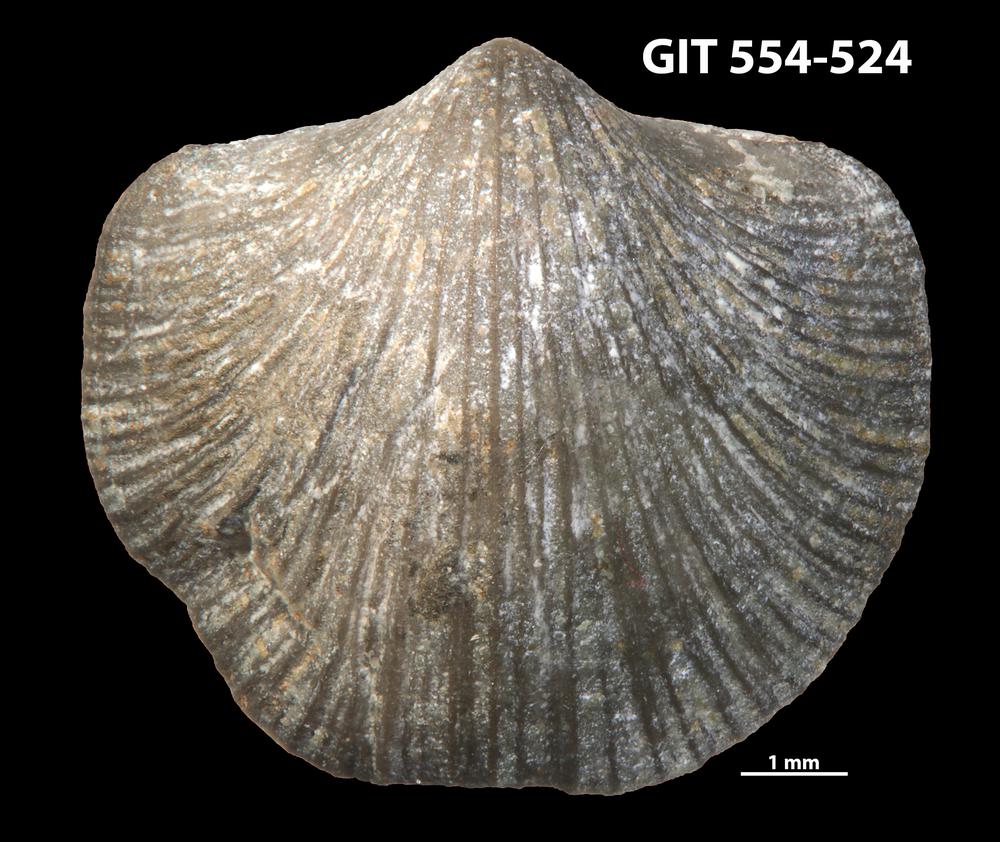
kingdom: Animalia
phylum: Brachiopoda
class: Rhynchonellata
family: Dalmanellidae
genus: Isorthis
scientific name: Isorthis parvulus
